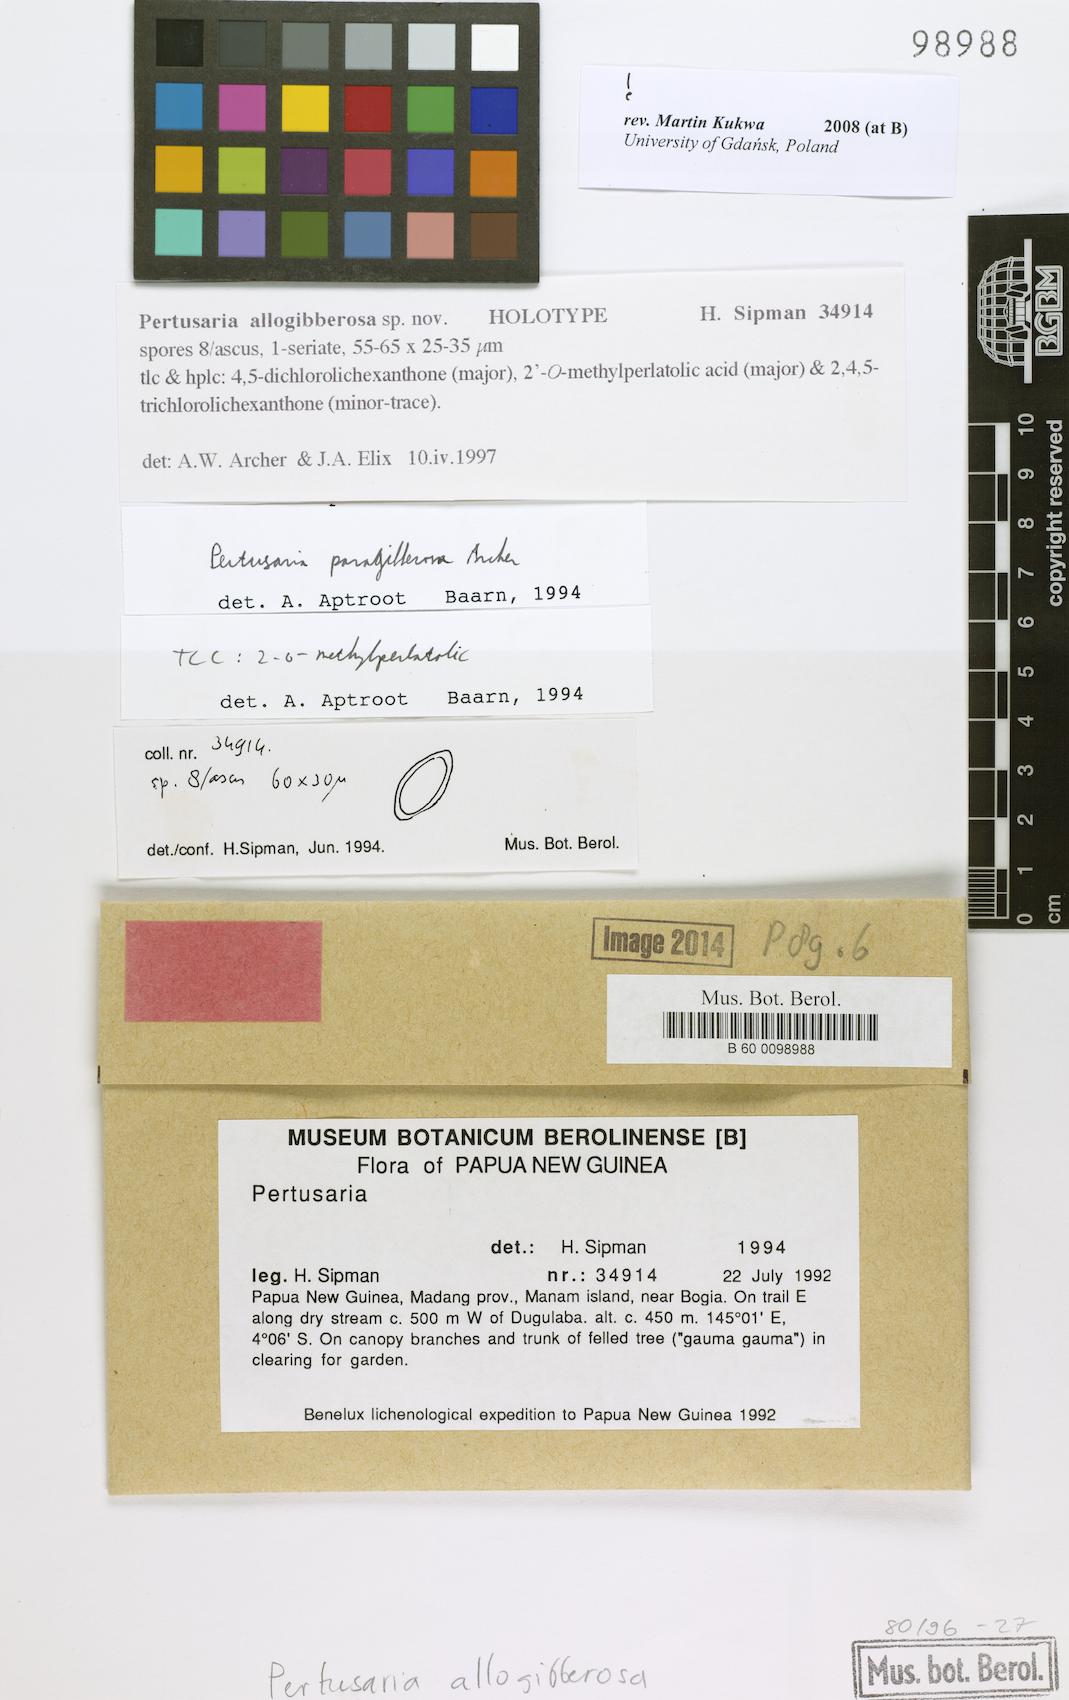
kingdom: Fungi
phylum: Ascomycota
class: Lecanoromycetes
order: Pertusariales
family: Pertusariaceae
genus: Pertusaria
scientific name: Pertusaria
